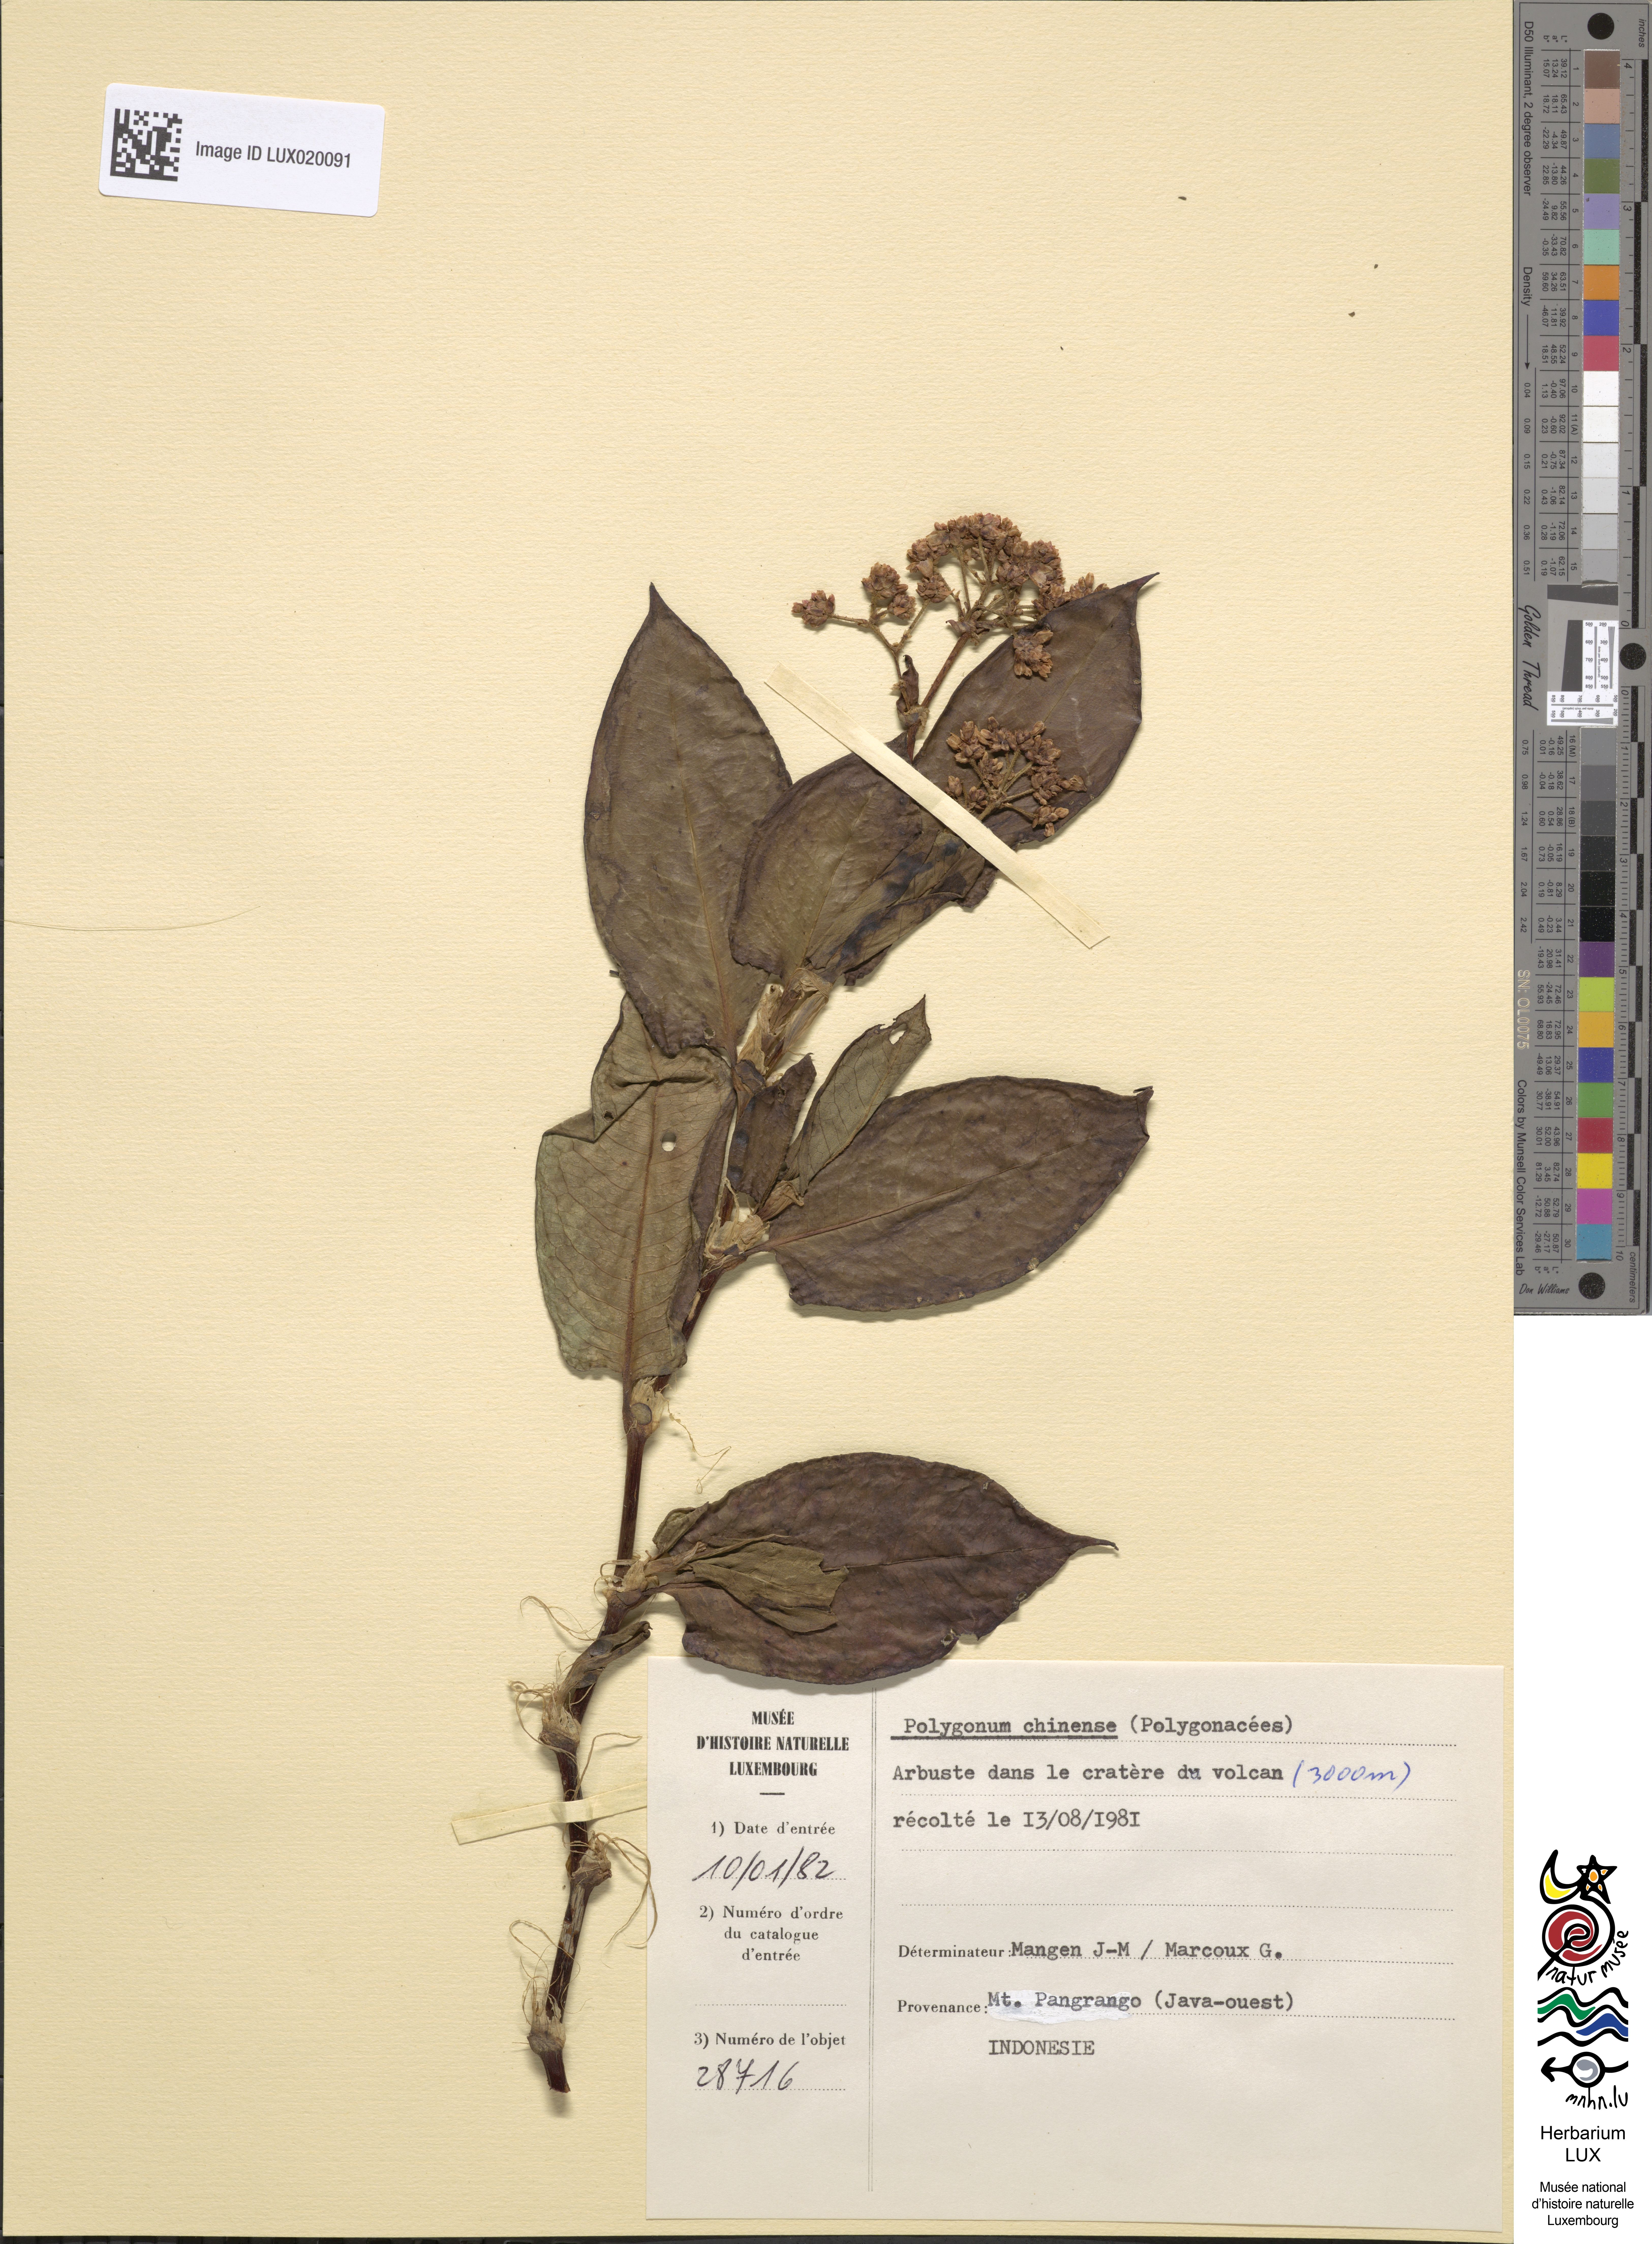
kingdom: Plantae
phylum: Tracheophyta
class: Magnoliopsida
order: Caryophyllales
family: Polygonaceae
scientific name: Polygonaceae
